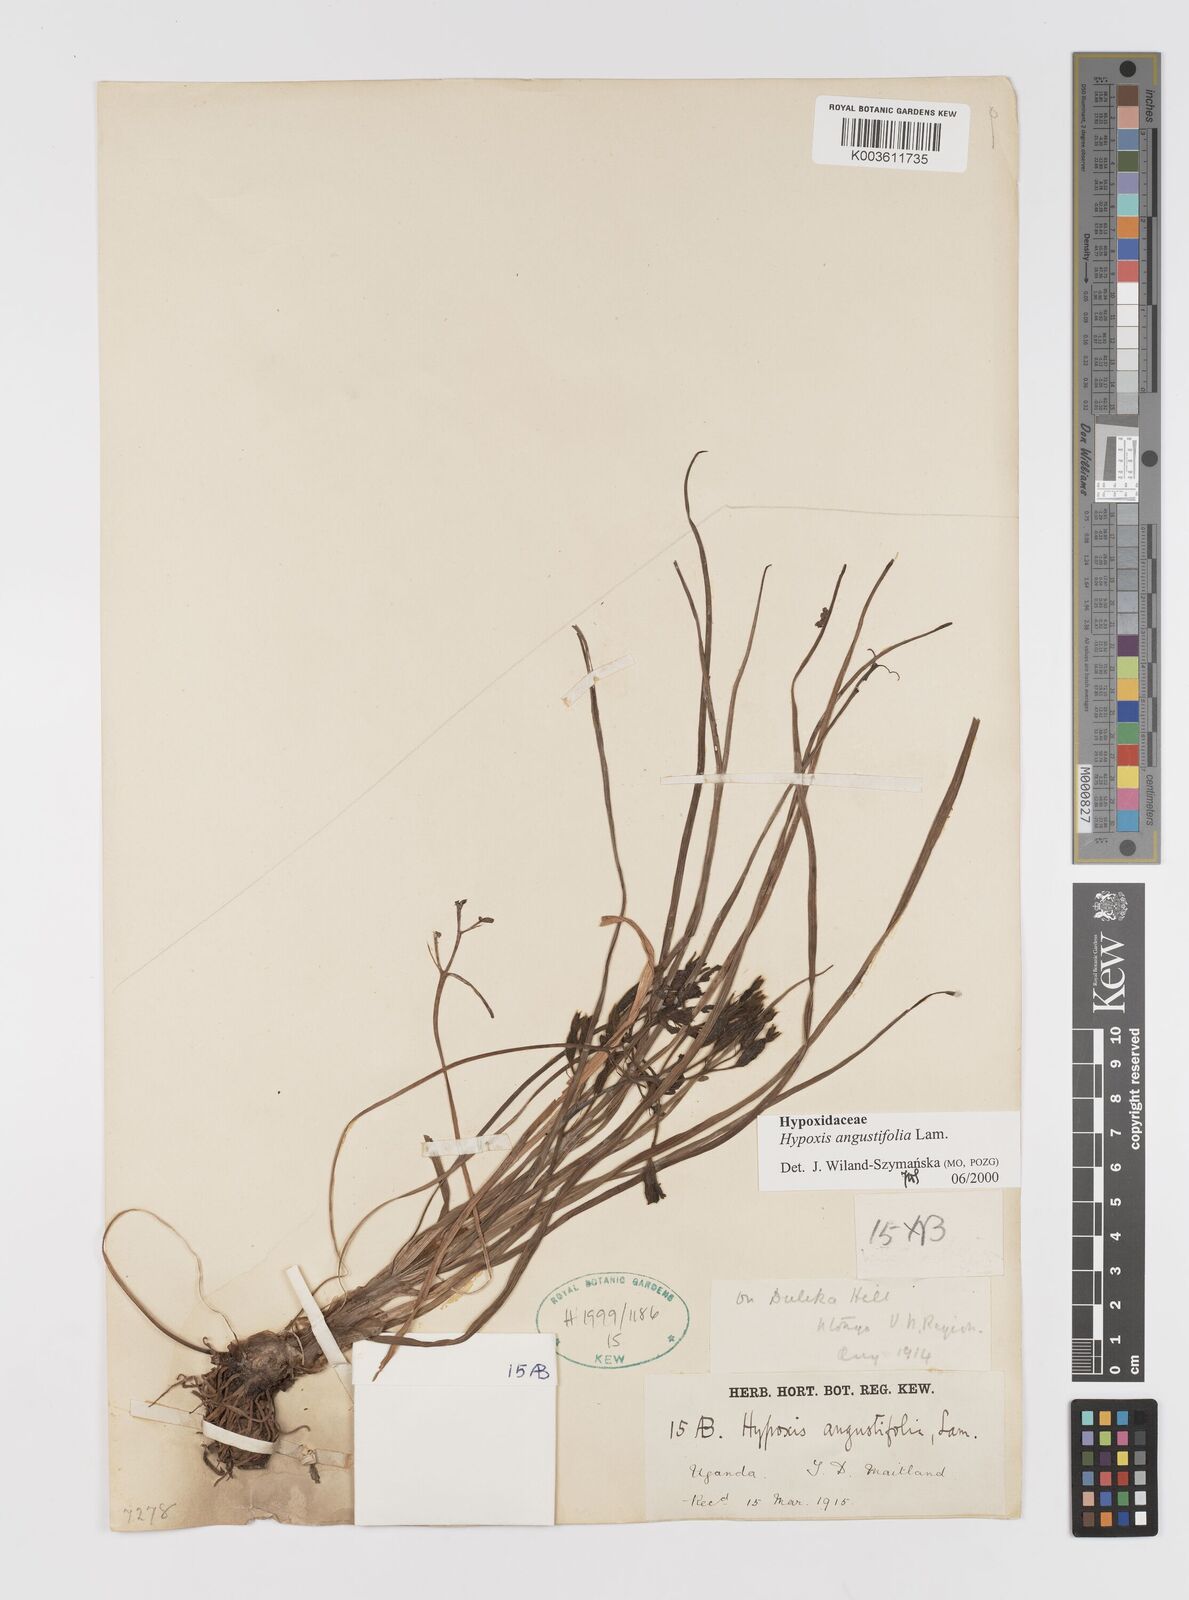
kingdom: Plantae
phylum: Tracheophyta
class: Liliopsida
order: Asparagales
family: Hypoxidaceae
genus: Hypoxis
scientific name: Hypoxis angustifolia
